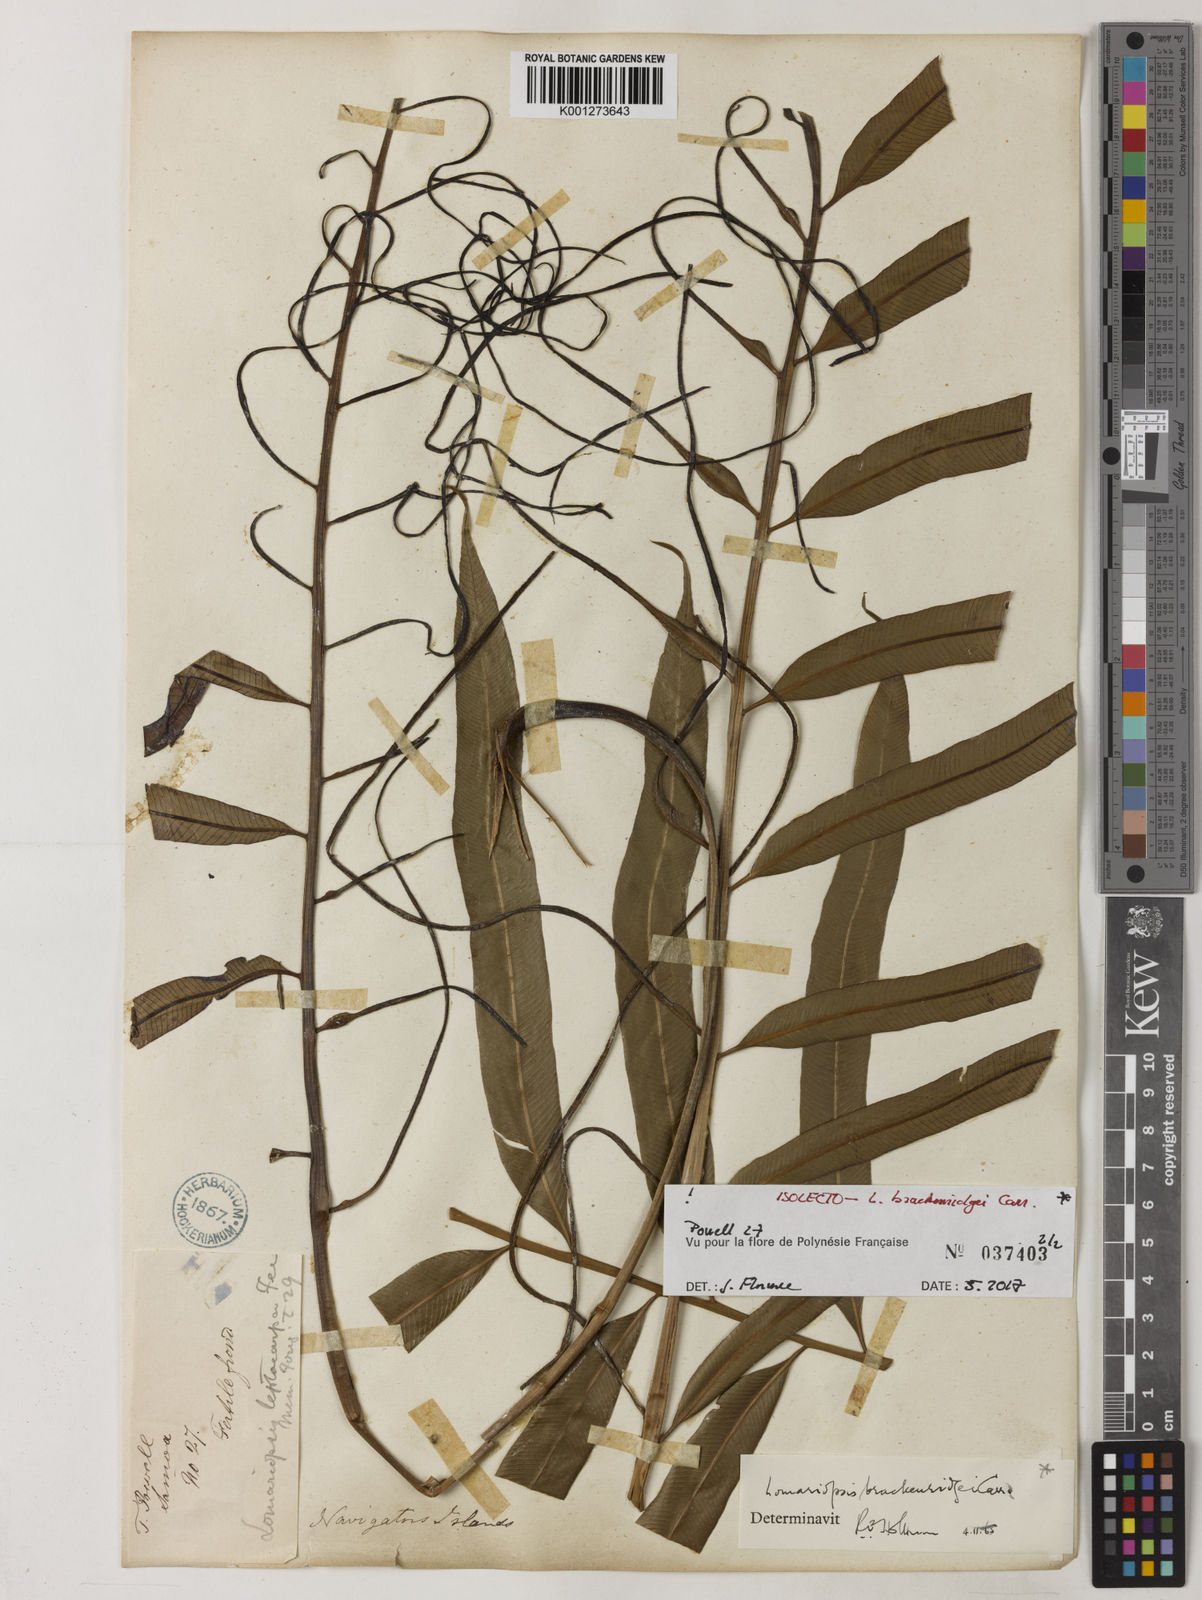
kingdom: Plantae
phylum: Tracheophyta
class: Polypodiopsida
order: Polypodiales
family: Lomariopsidaceae
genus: Lomariopsis
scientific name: Lomariopsis brackenridgei
